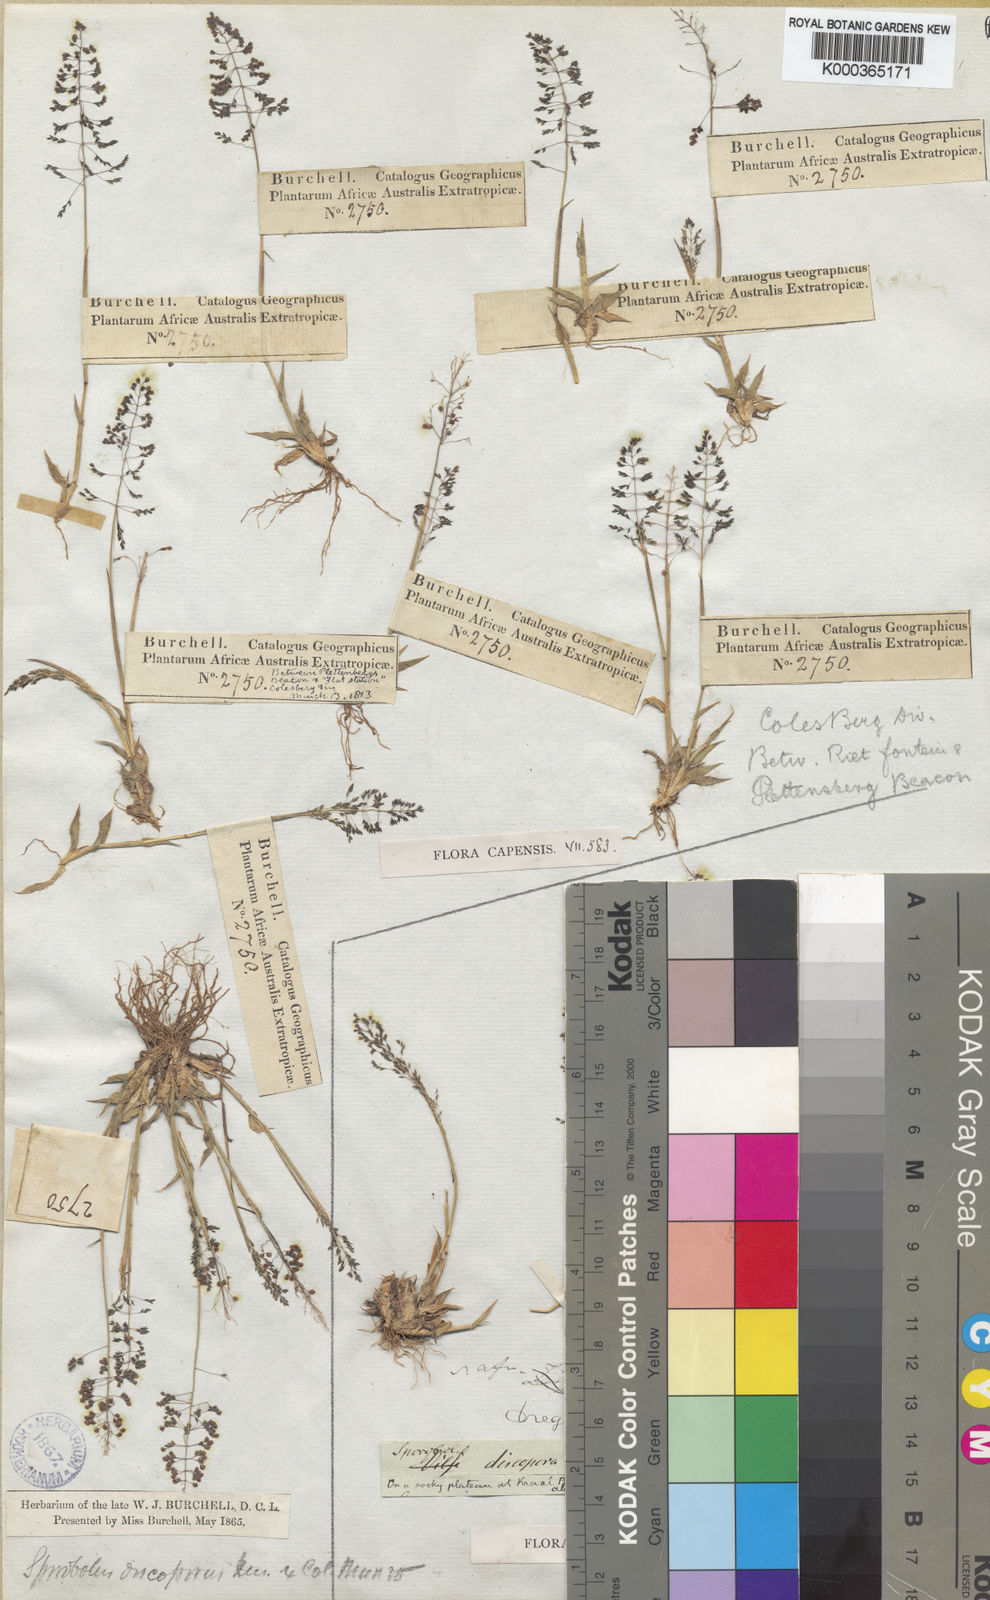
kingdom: Plantae
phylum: Tracheophyta
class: Liliopsida
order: Poales
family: Poaceae
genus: Sporobolus
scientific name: Sporobolus discosporus
